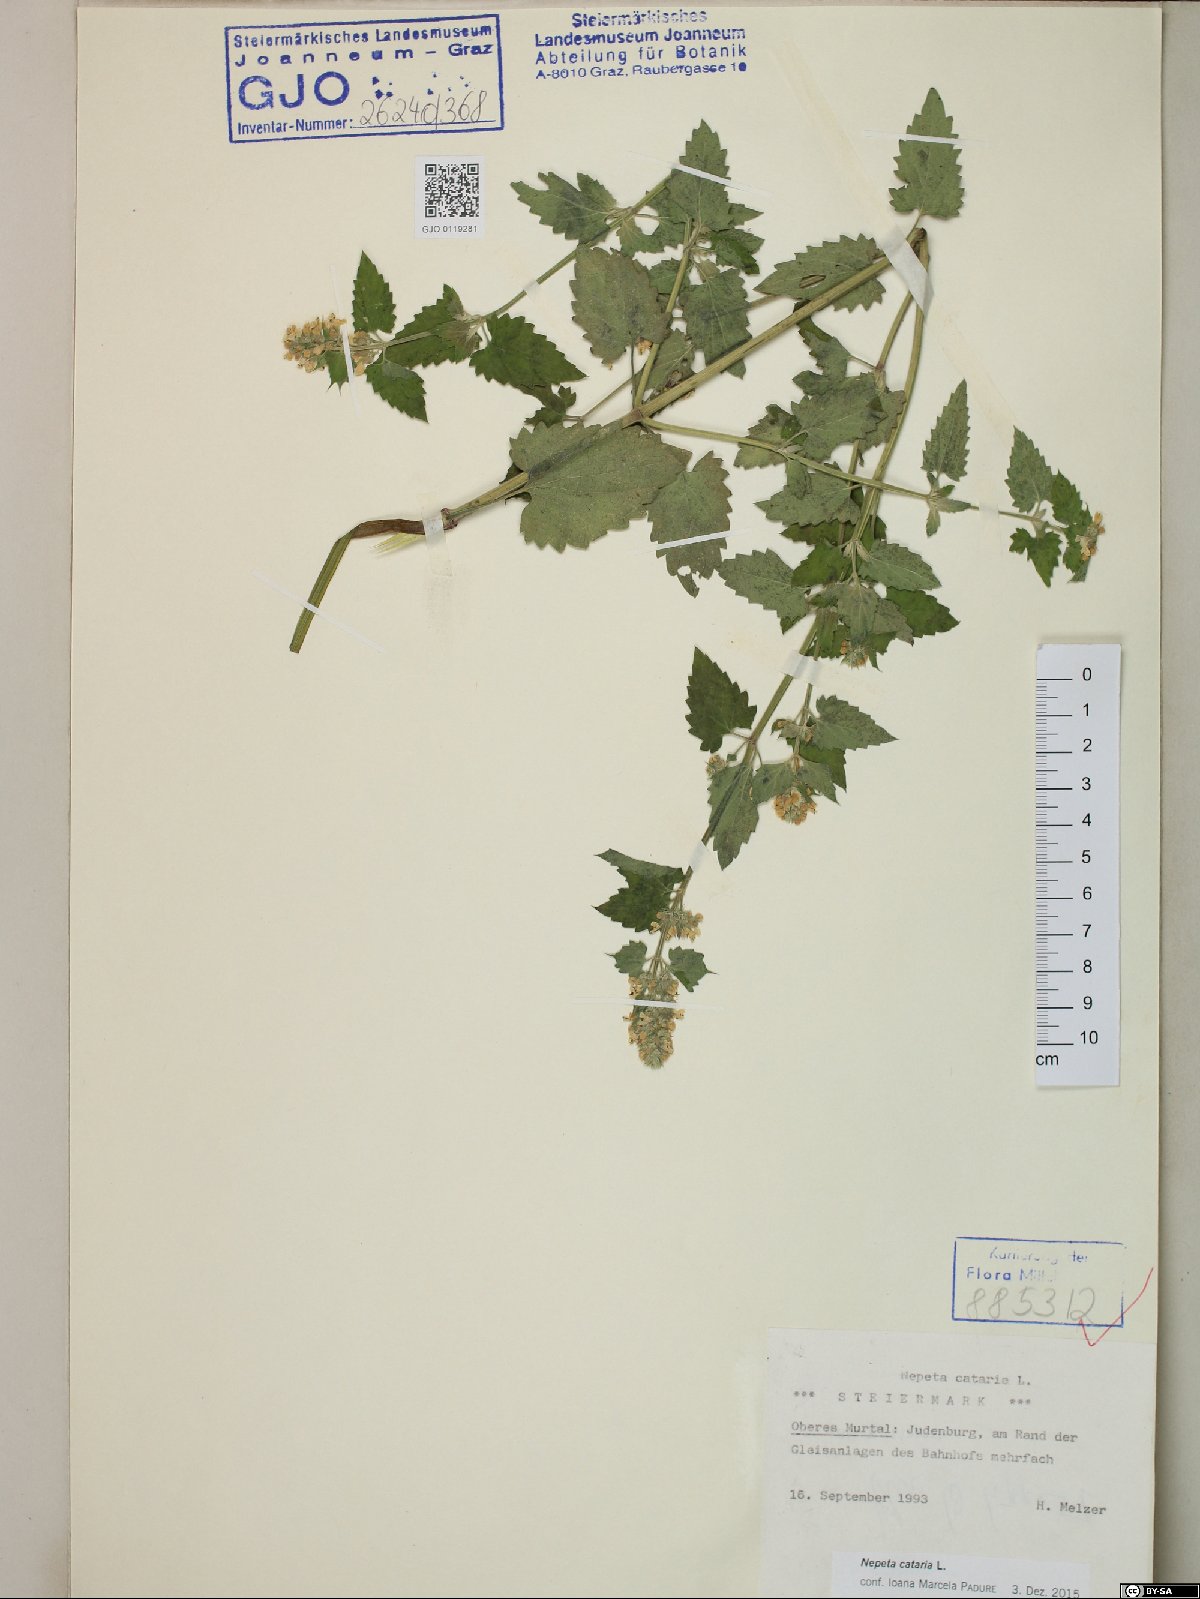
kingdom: Plantae
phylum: Tracheophyta
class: Magnoliopsida
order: Lamiales
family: Lamiaceae
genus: Nepeta
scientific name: Nepeta cataria
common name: Catnip
